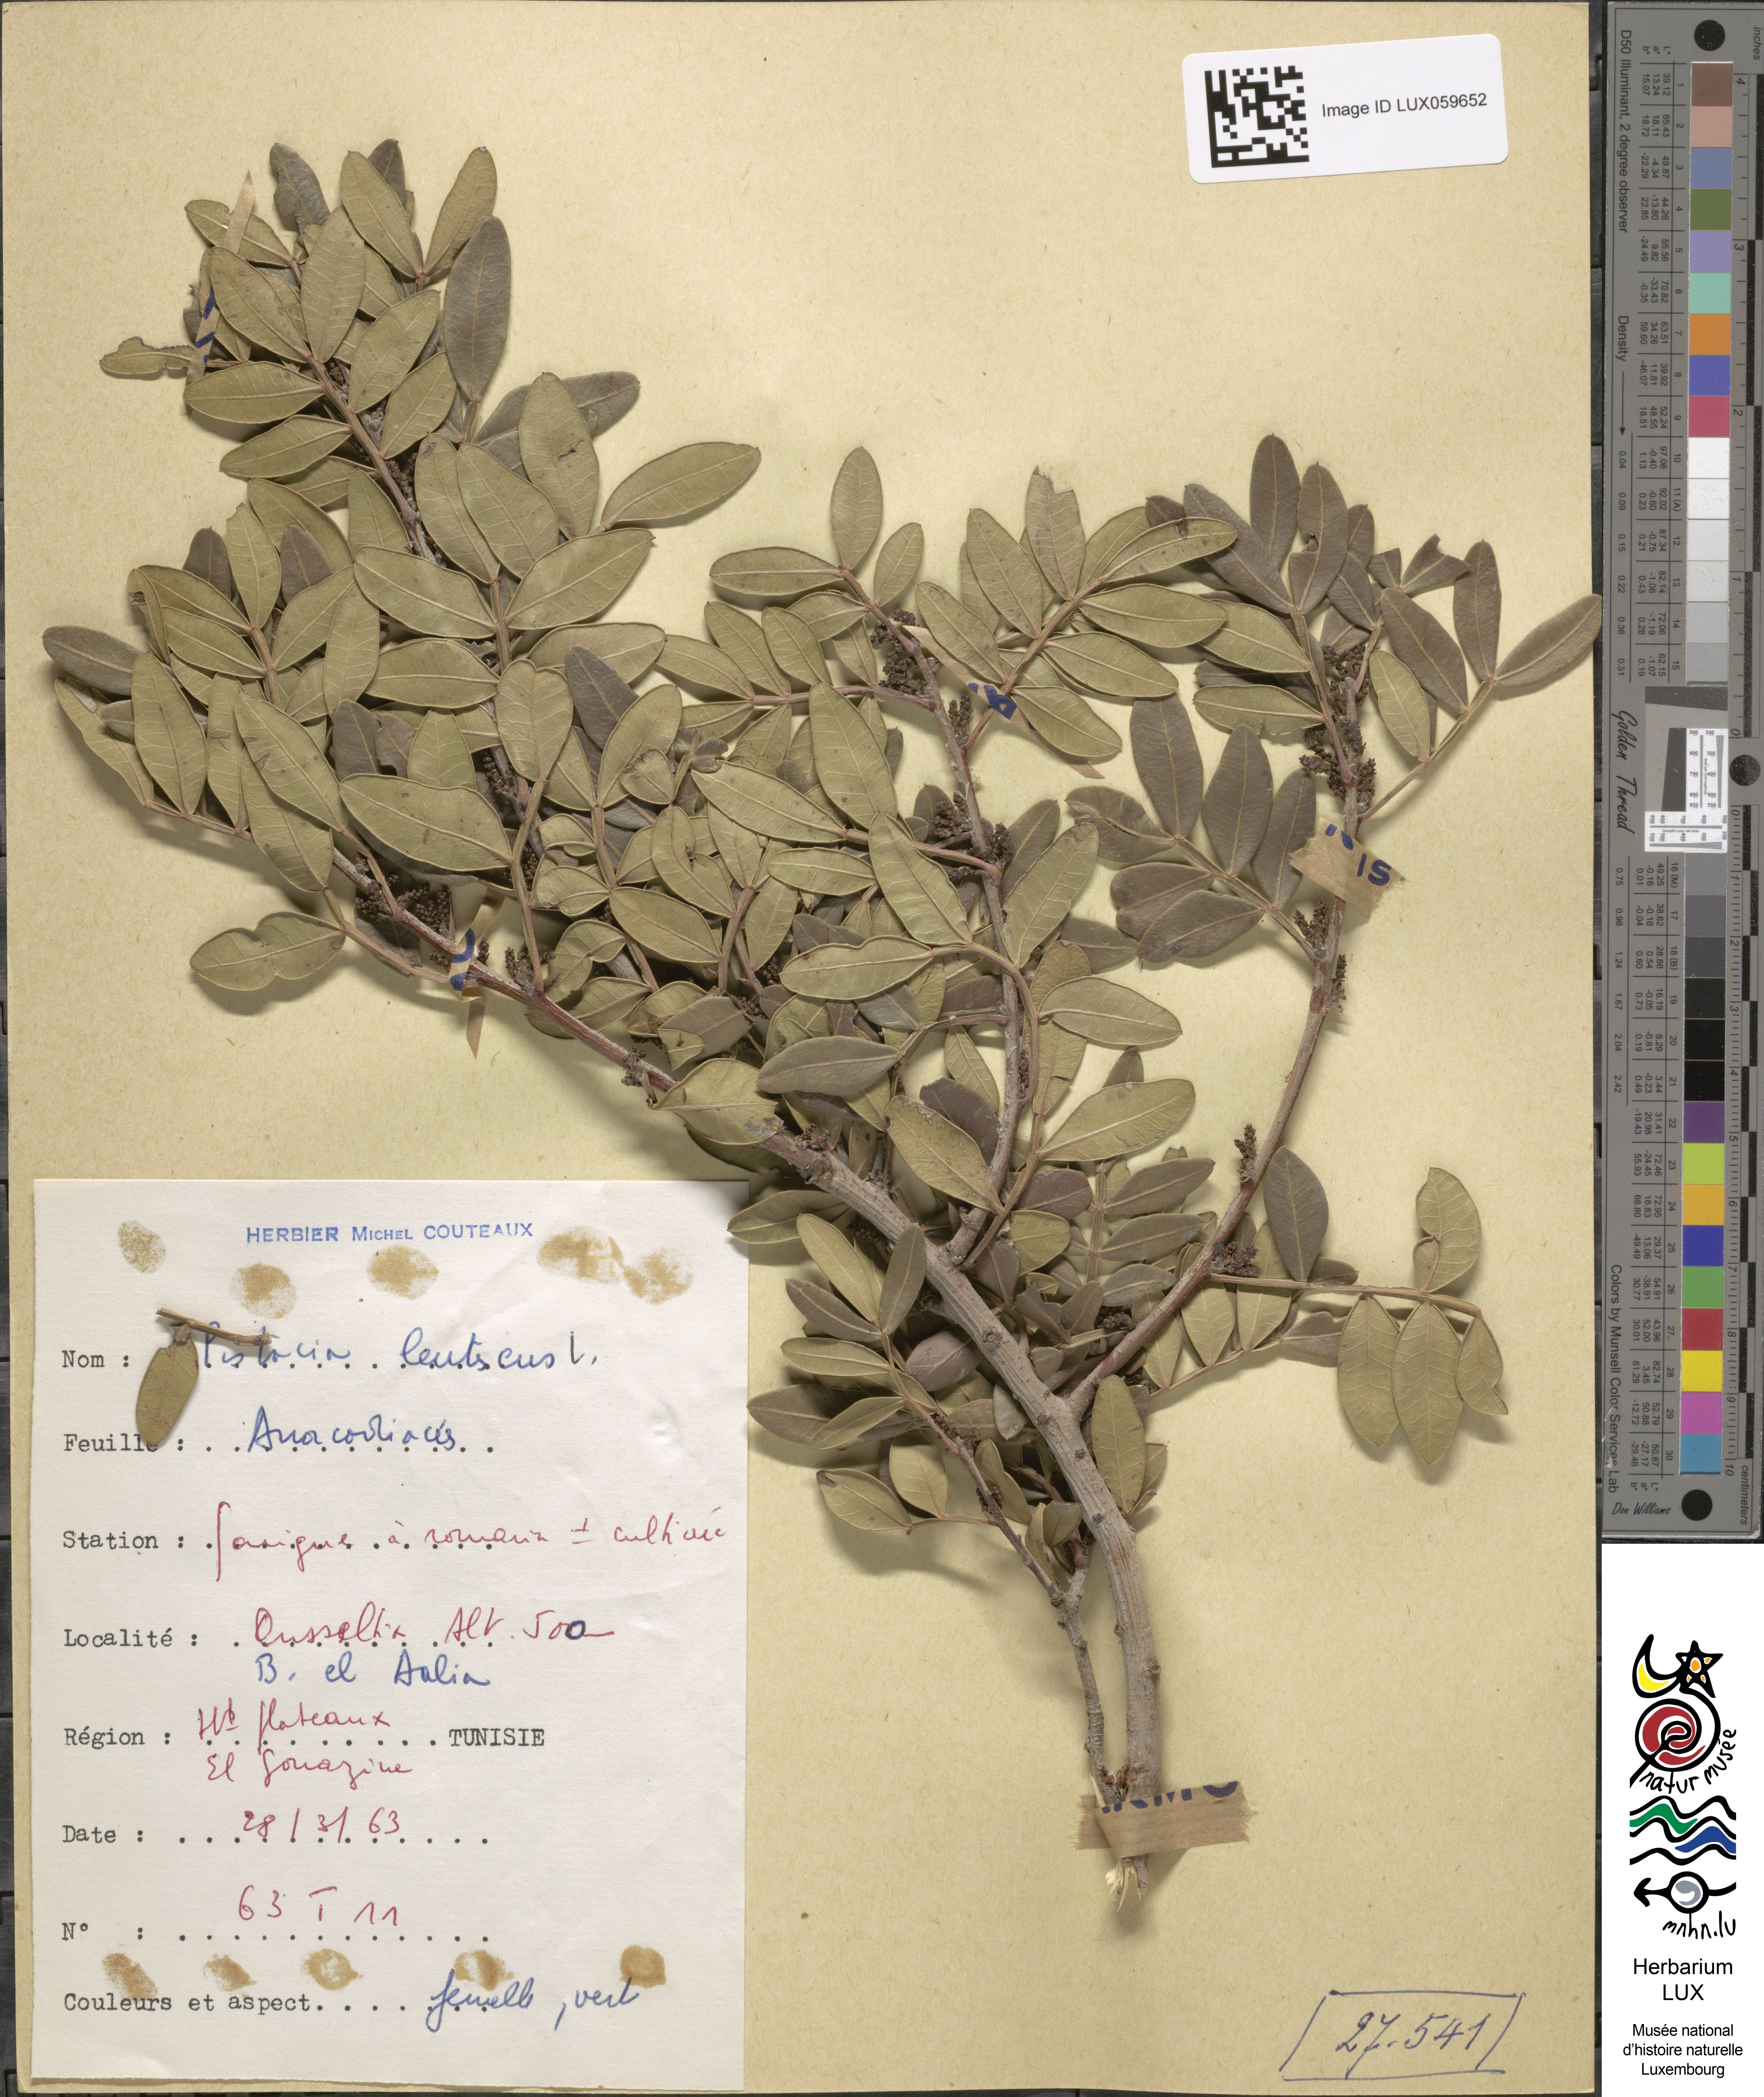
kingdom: Plantae
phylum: Tracheophyta
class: Magnoliopsida
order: Sapindales
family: Anacardiaceae
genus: Pistacia
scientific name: Pistacia lentiscus
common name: Lentisk
